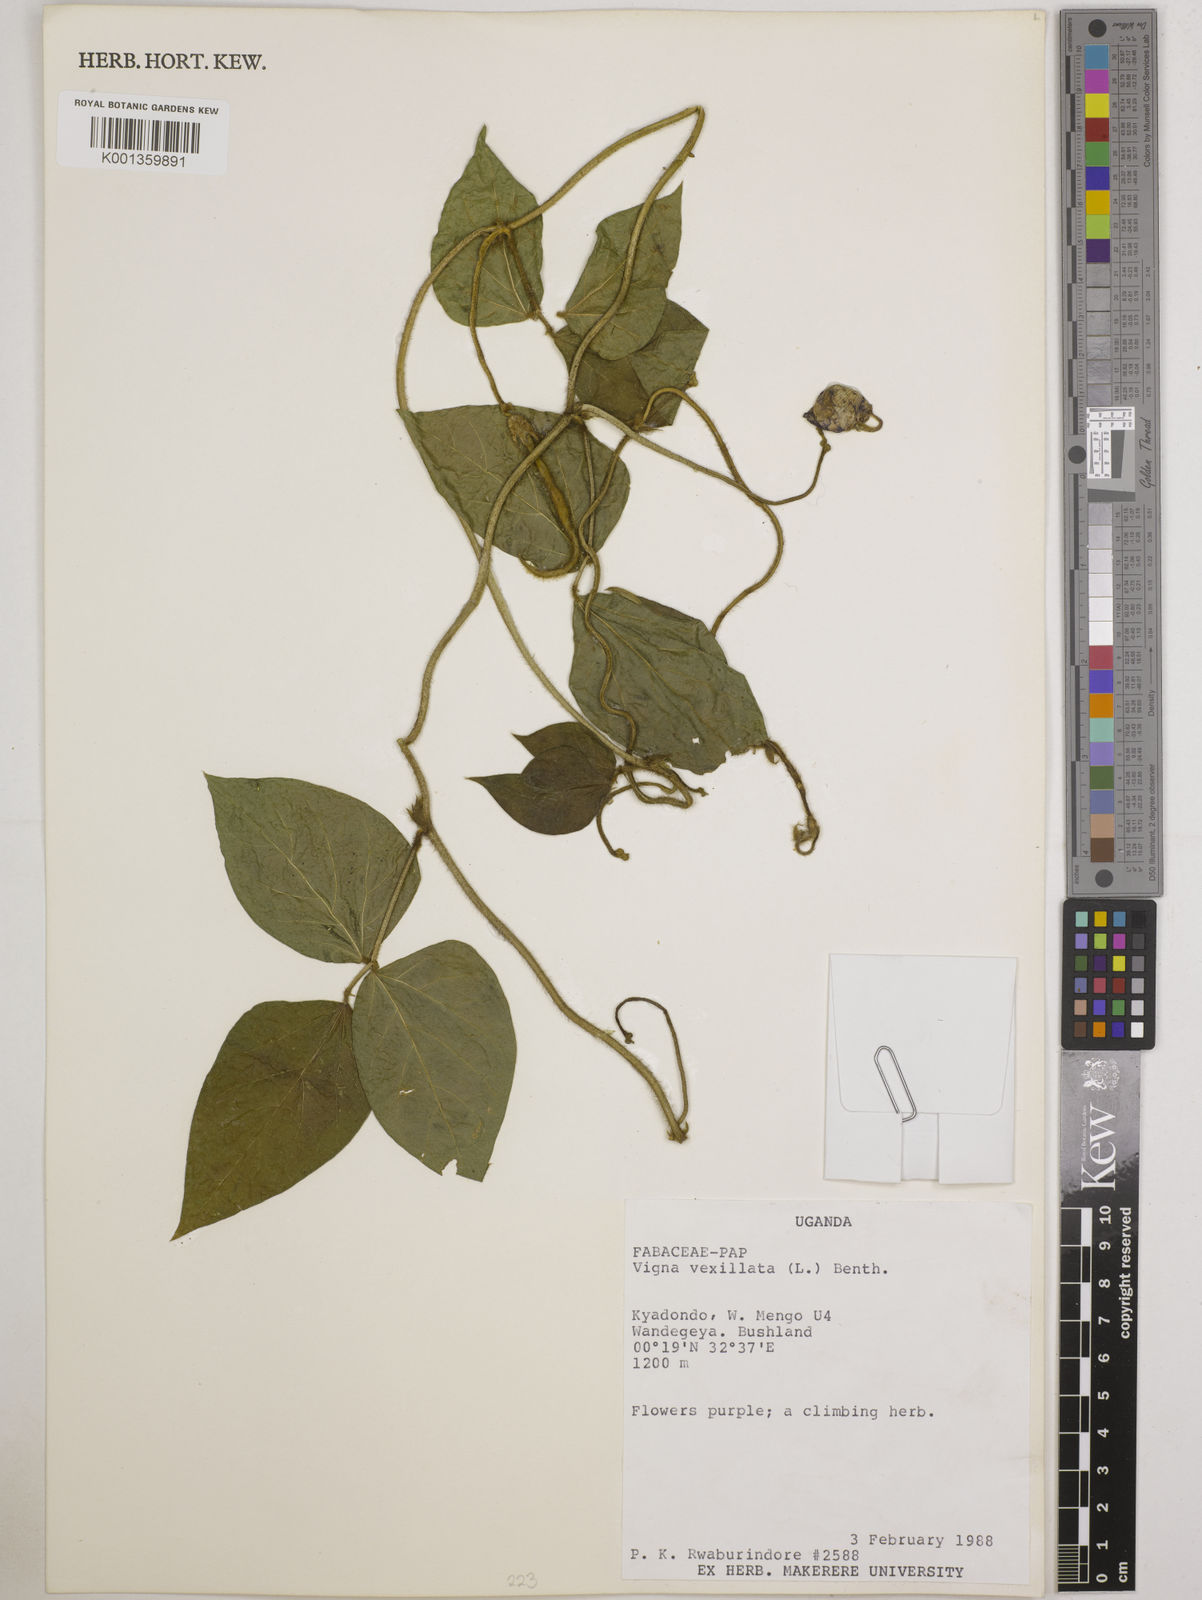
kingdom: Plantae
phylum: Tracheophyta
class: Magnoliopsida
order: Fabales
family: Fabaceae
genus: Vigna
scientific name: Vigna vexillata
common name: Zombi pea
